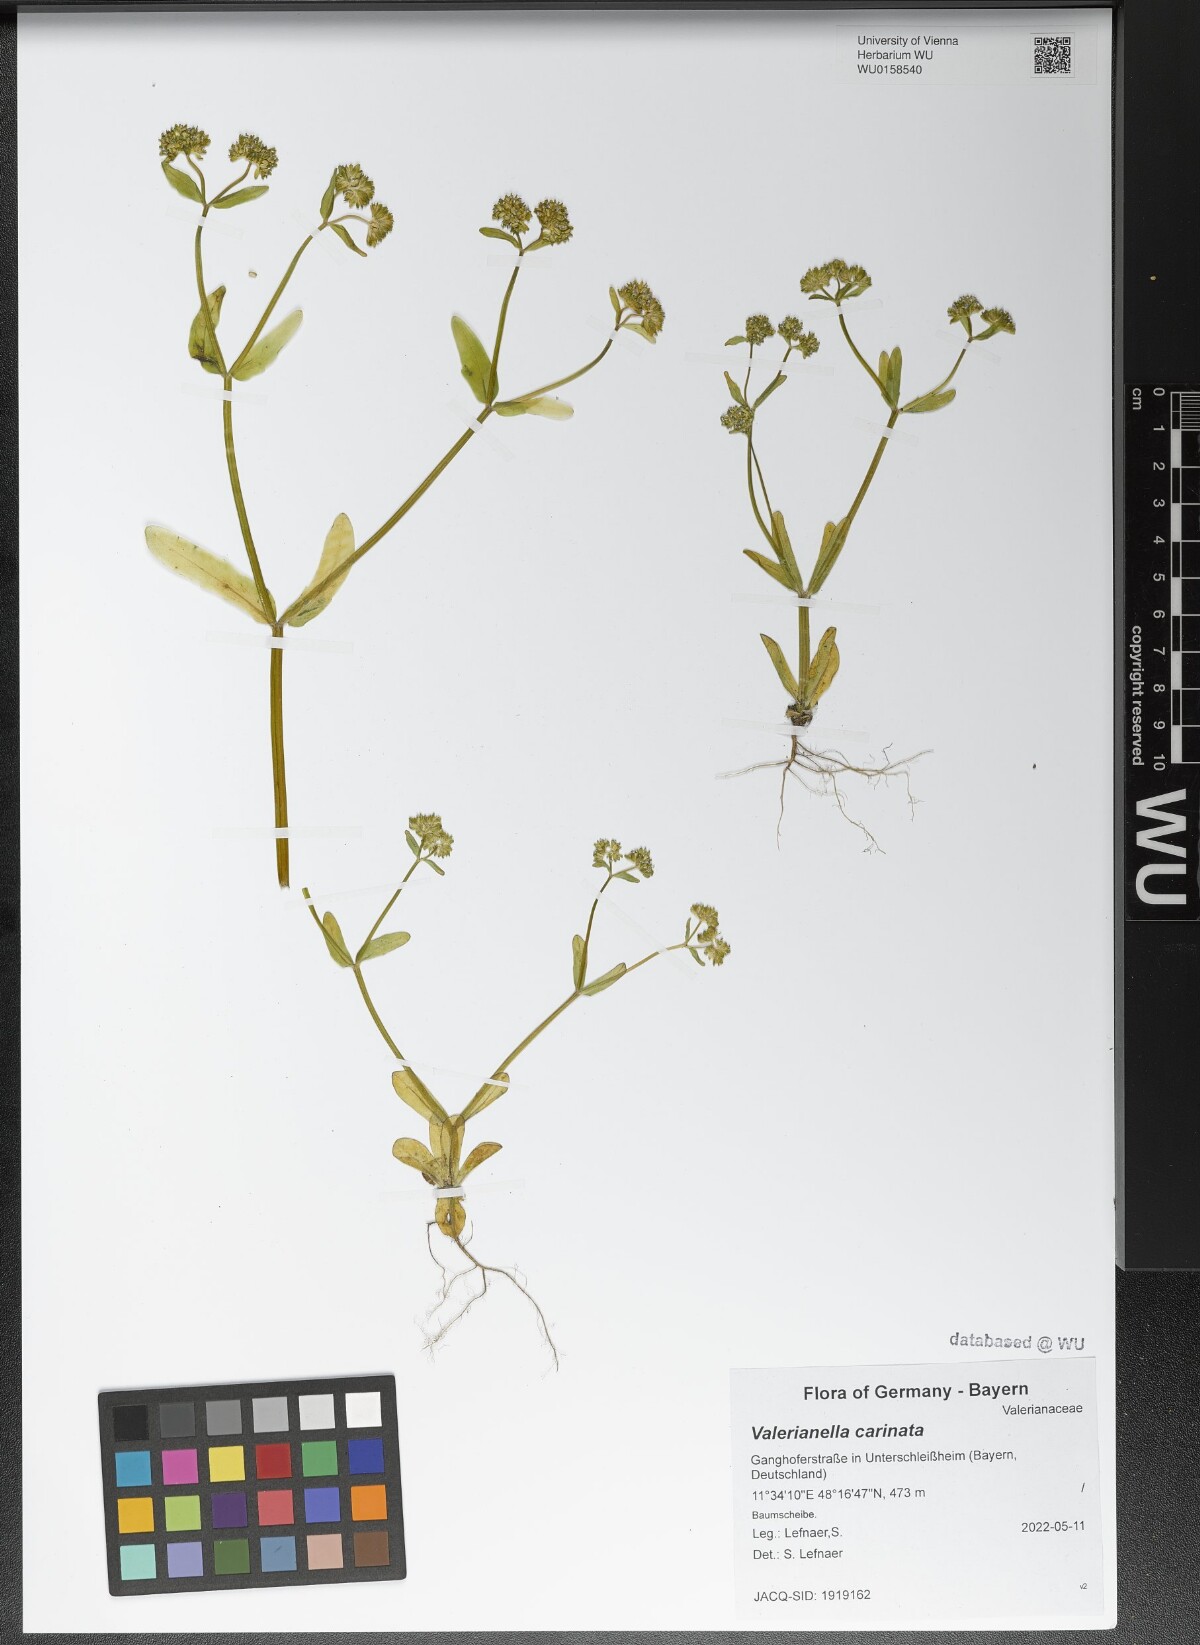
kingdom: Plantae
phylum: Tracheophyta
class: Magnoliopsida
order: Dipsacales
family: Caprifoliaceae
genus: Valerianella
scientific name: Valerianella carinata
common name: Keeled-fruited cornsalad
